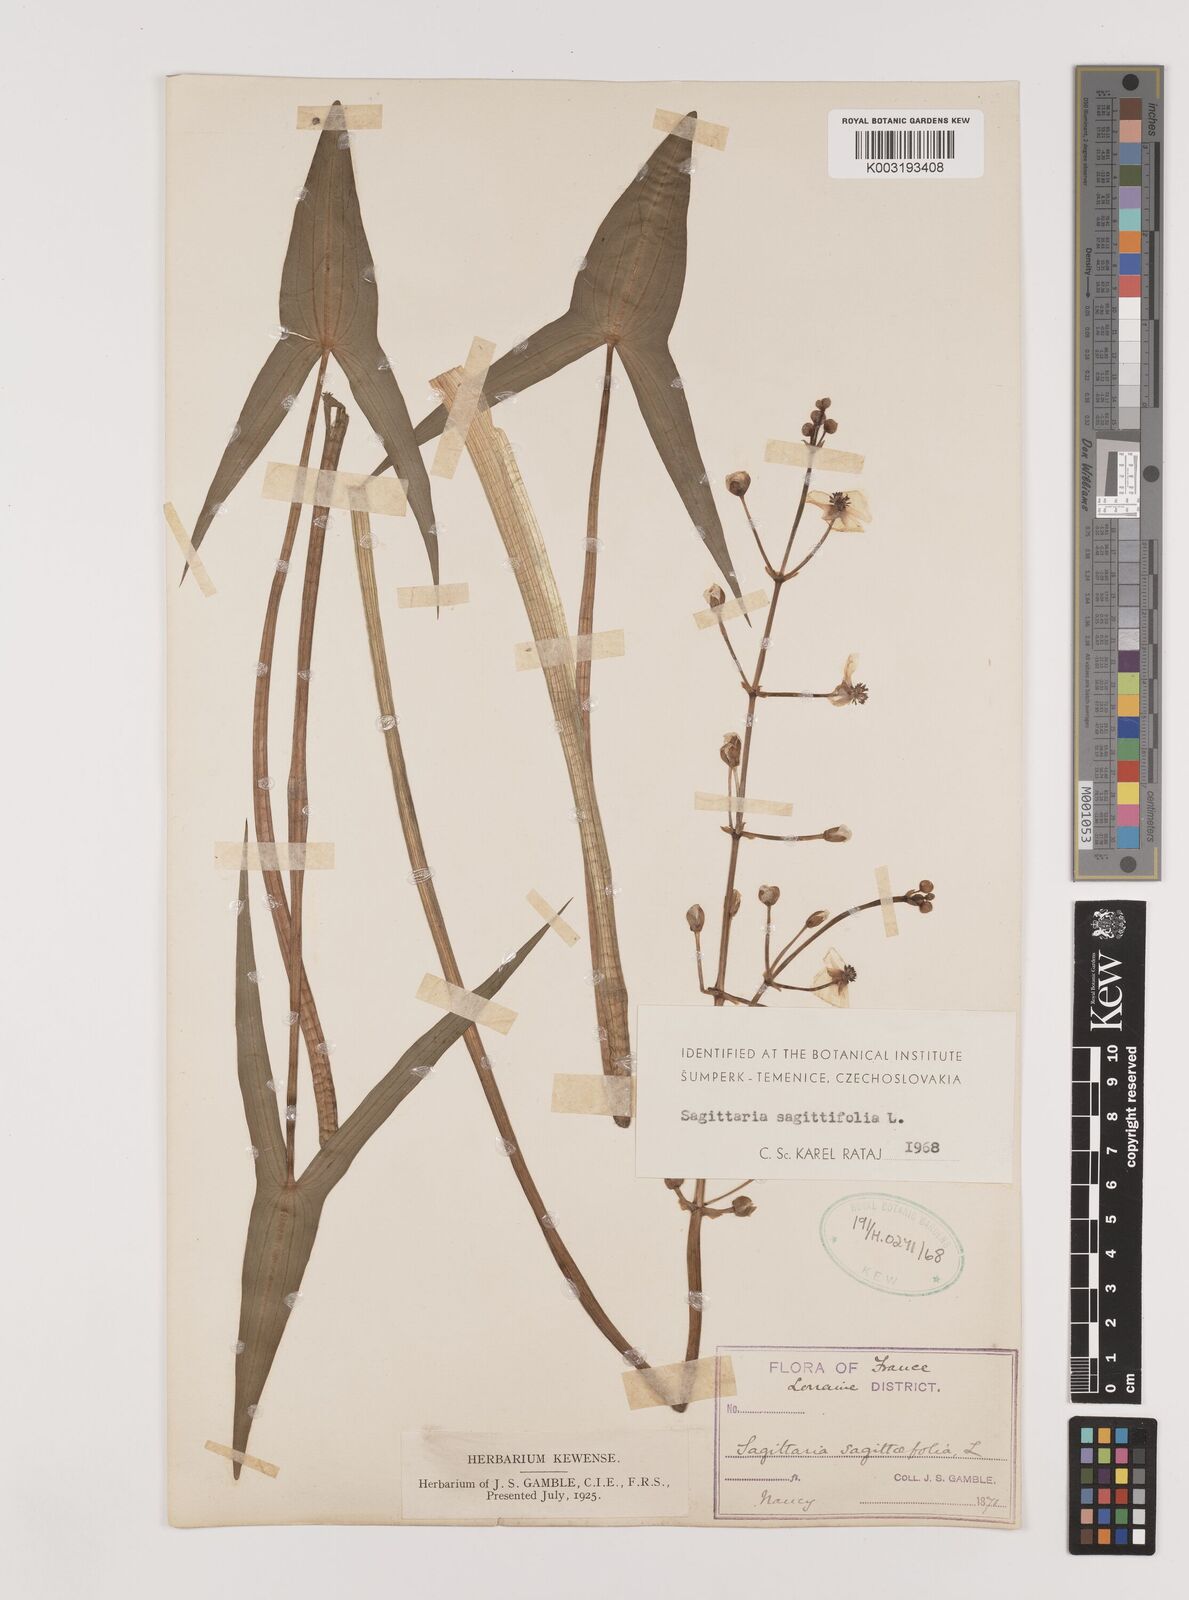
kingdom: Plantae
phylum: Tracheophyta
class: Liliopsida
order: Alismatales
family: Alismataceae
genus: Sagittaria
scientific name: Sagittaria sagittifolia
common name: Arrowhead
